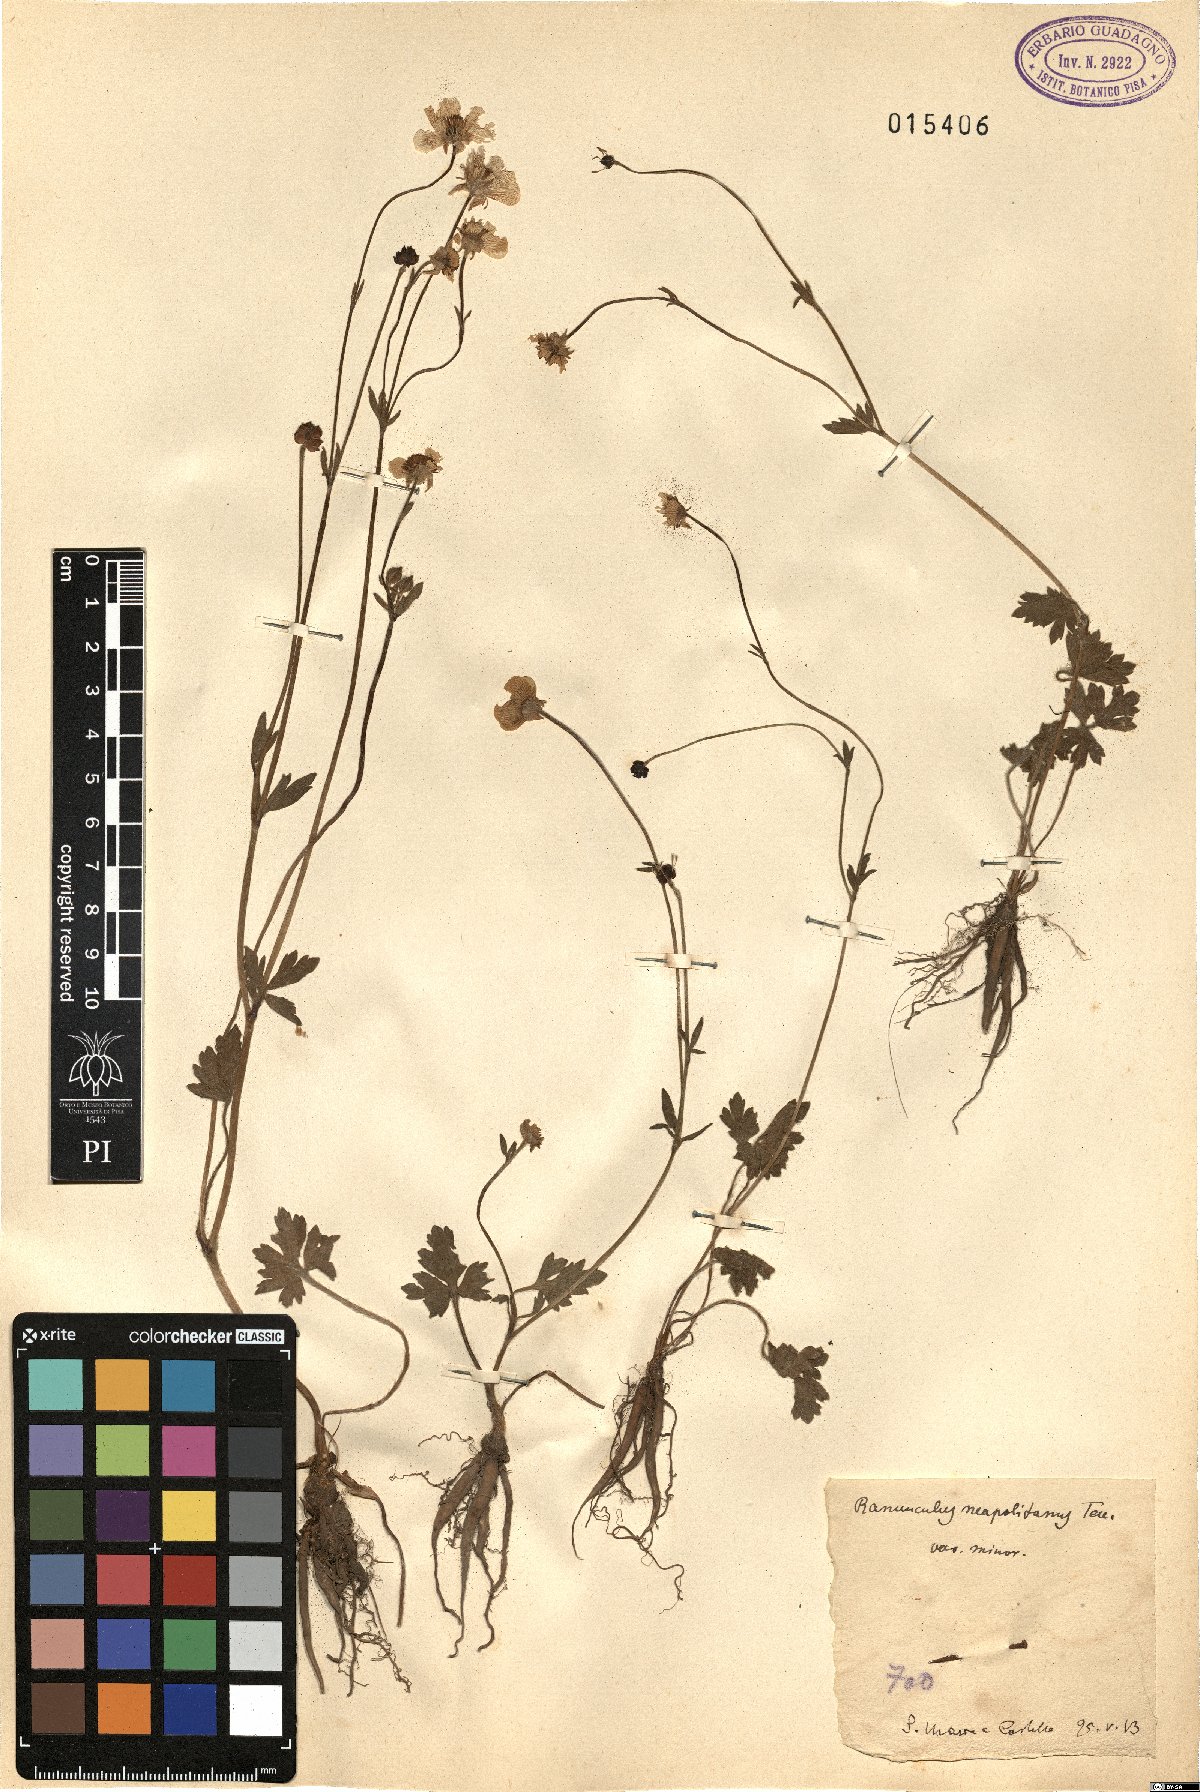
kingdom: Plantae
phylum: Tracheophyta
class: Magnoliopsida
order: Ranunculales
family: Ranunculaceae
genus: Ranunculus
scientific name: Ranunculus neapolitanus
